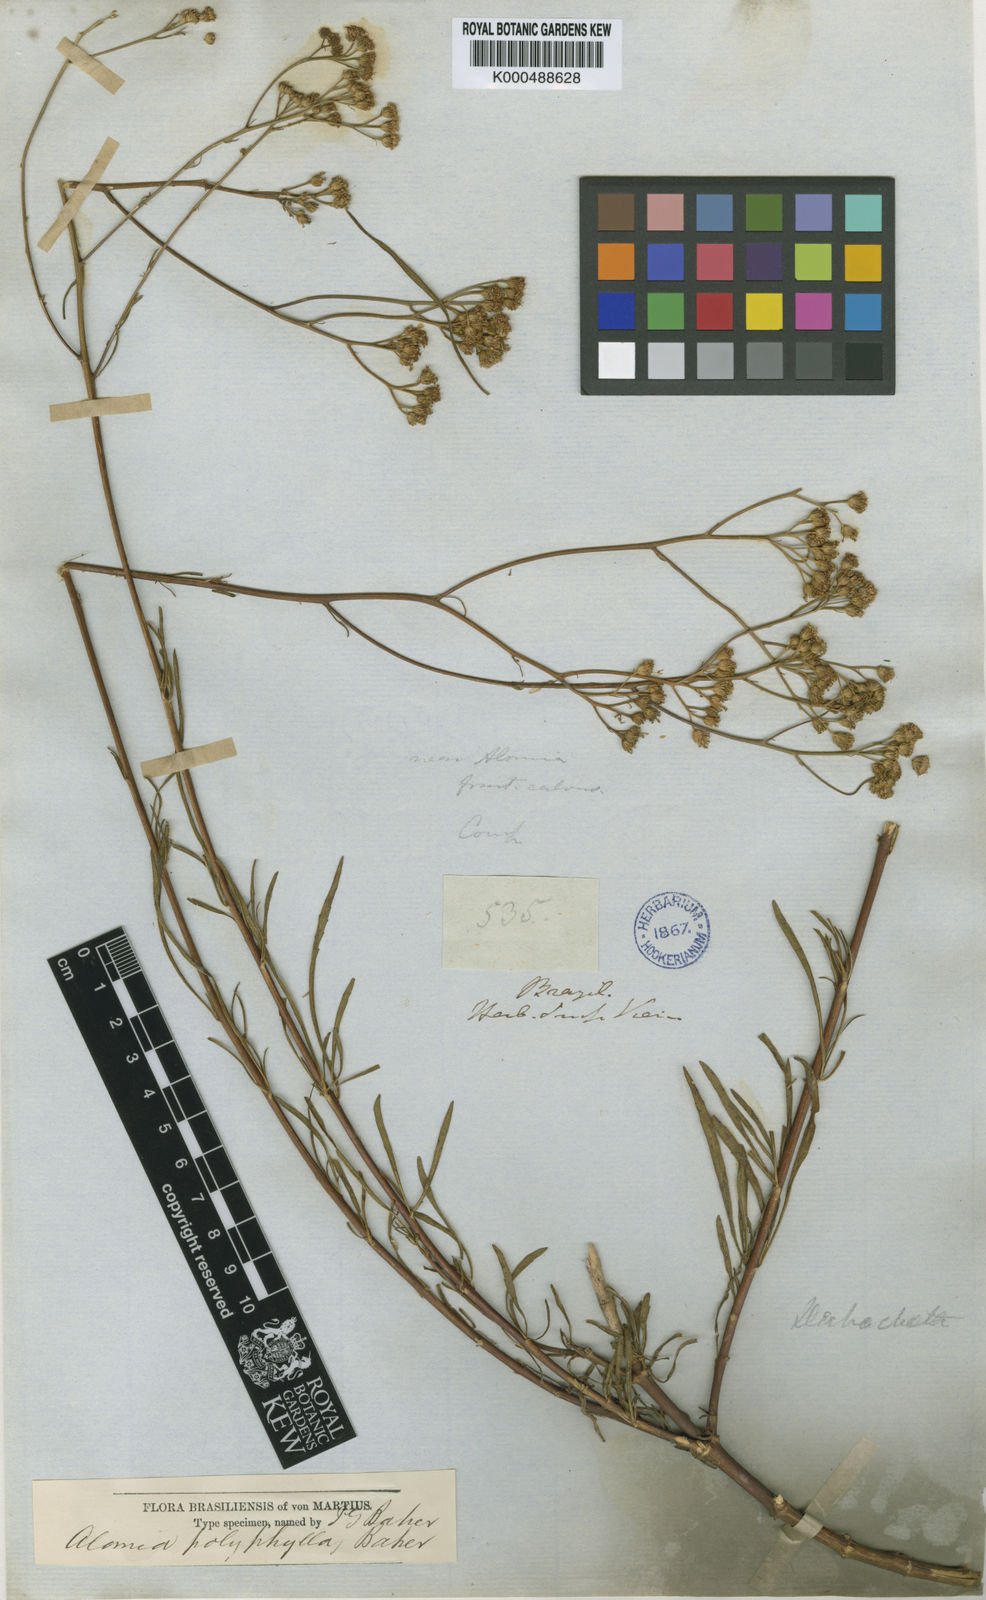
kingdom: Plantae
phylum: Tracheophyta
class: Magnoliopsida
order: Asterales
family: Asteraceae
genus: Ageratum
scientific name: Ageratum fastigiatum
